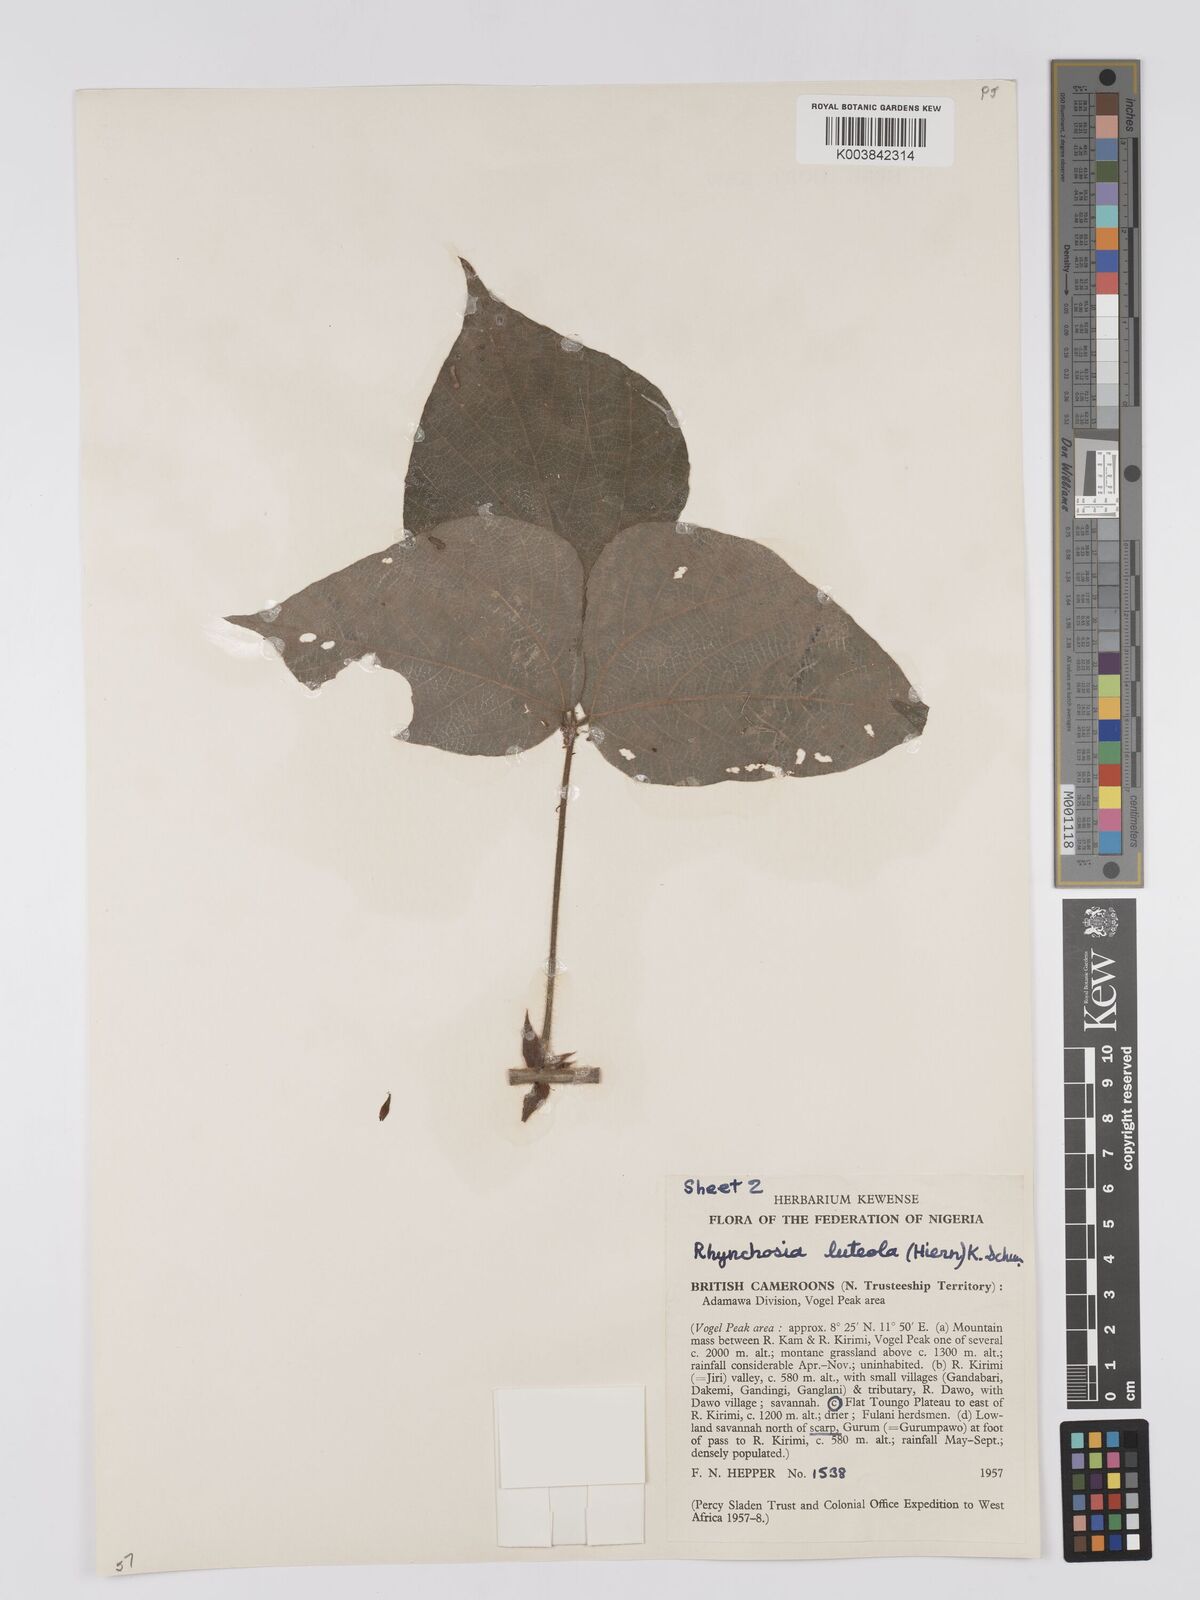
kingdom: Plantae
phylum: Tracheophyta
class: Magnoliopsida
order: Fabales
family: Fabaceae
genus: Rhynchosia
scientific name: Rhynchosia luteola
